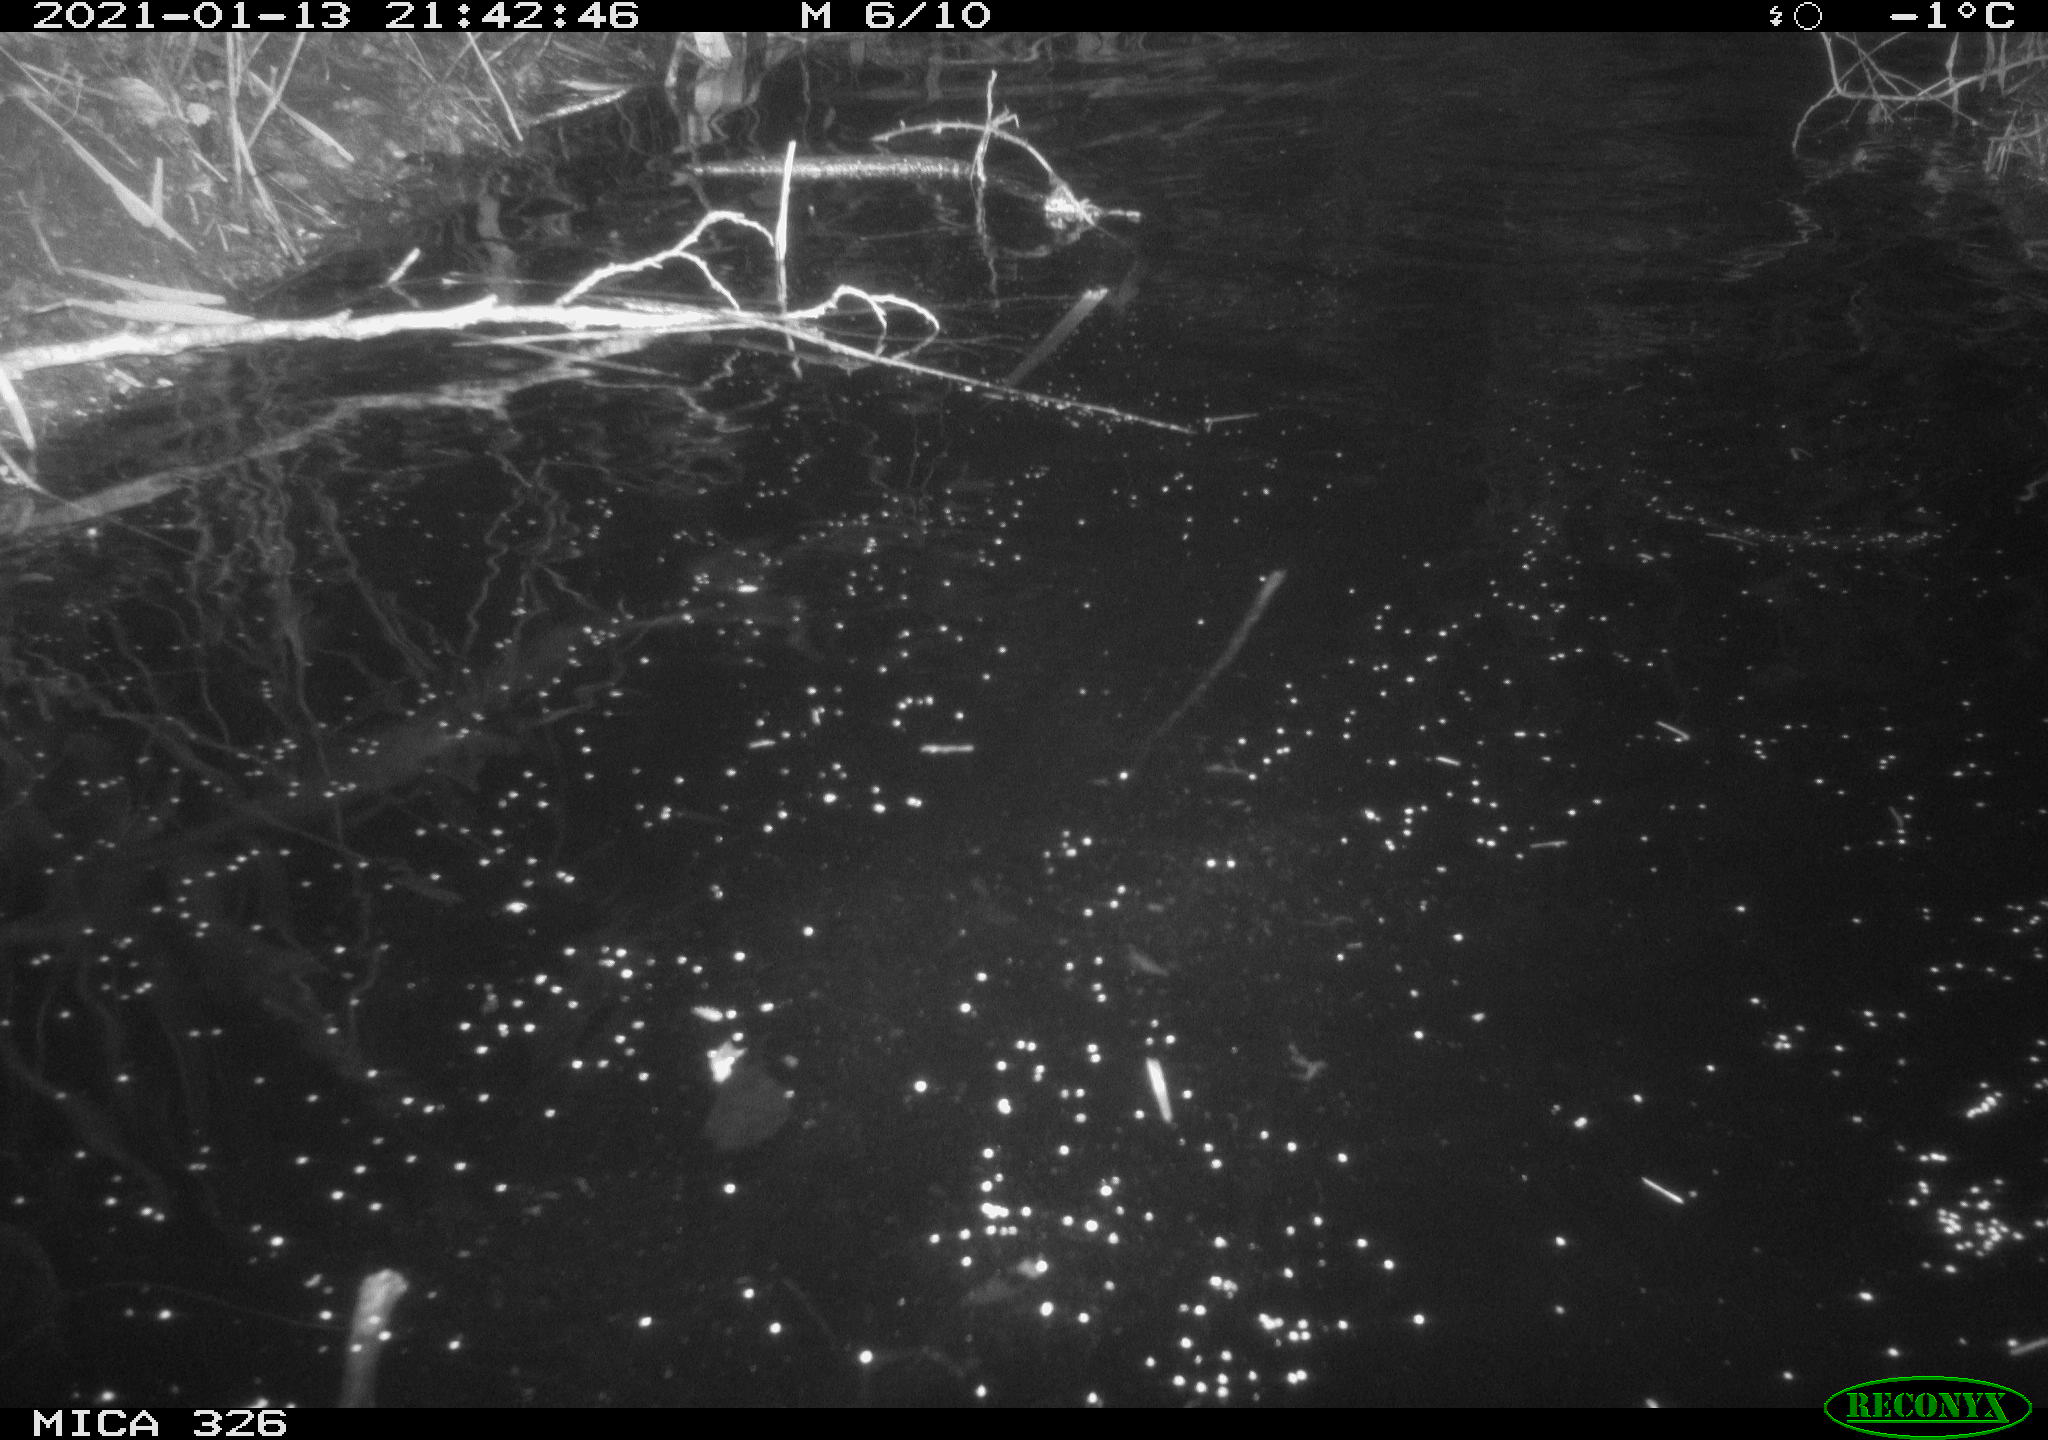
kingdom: Animalia
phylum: Chordata
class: Mammalia
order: Rodentia
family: Myocastoridae
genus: Myocastor
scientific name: Myocastor coypus
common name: Coypu
